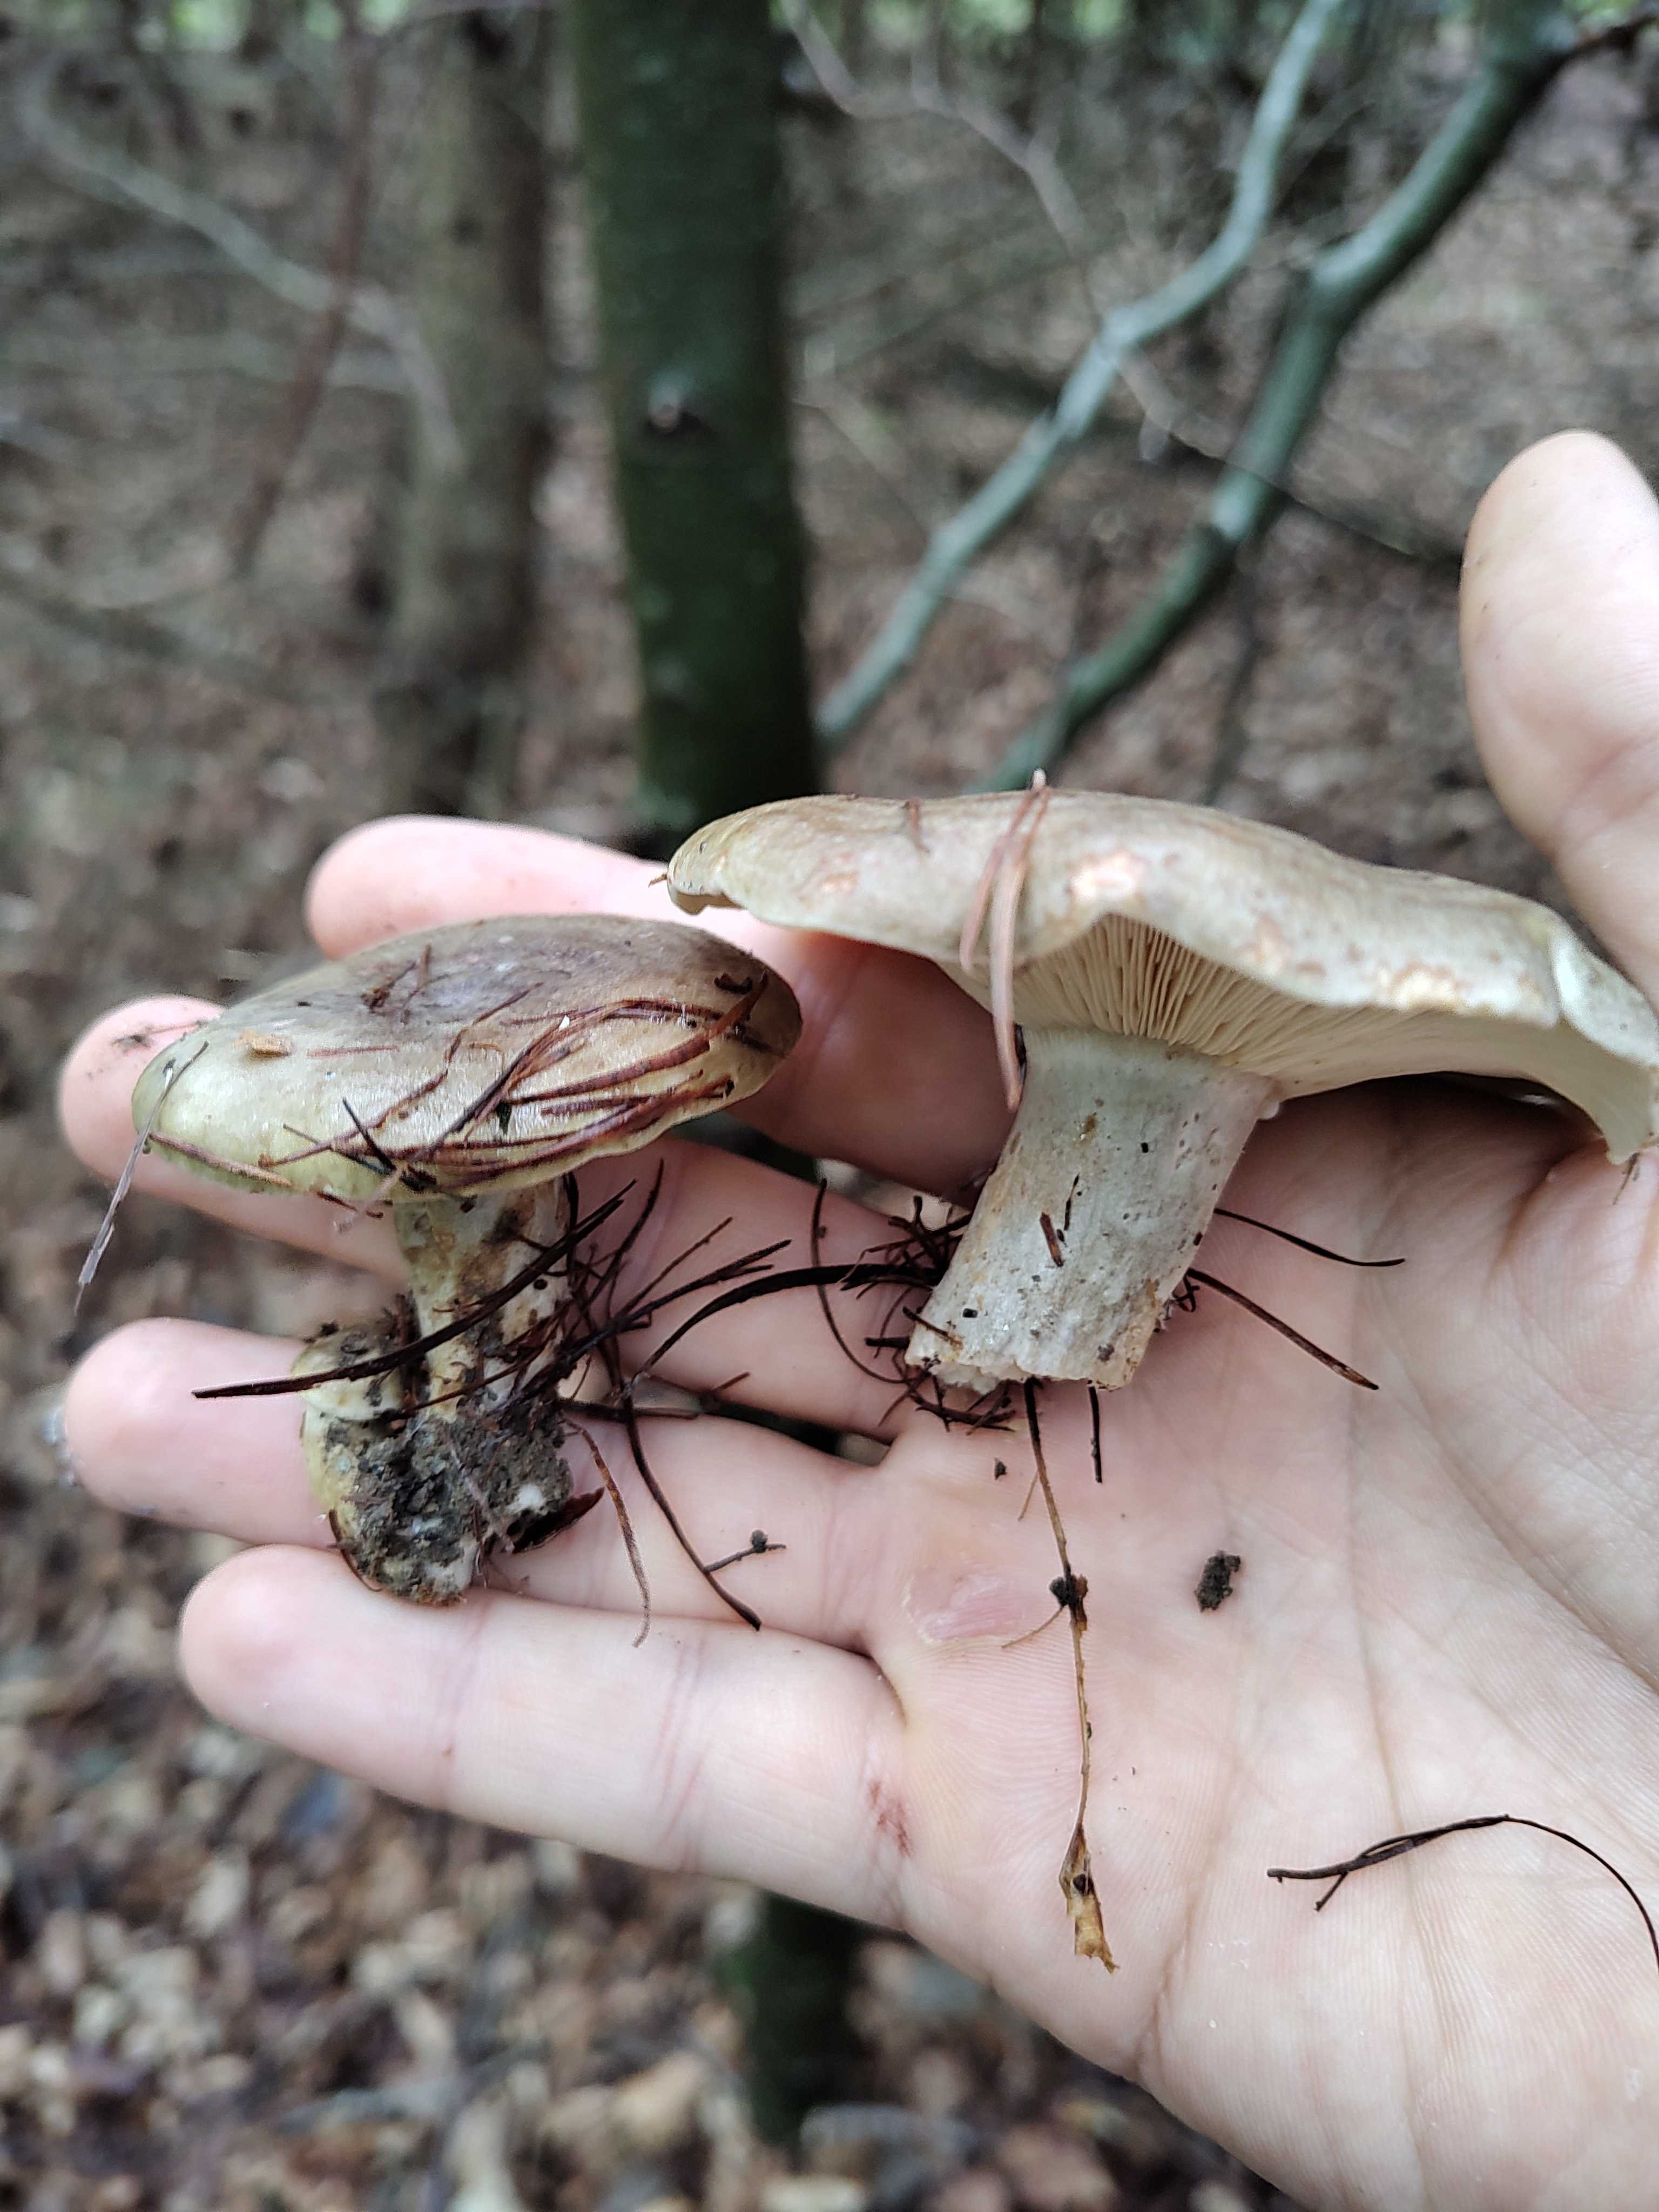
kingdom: Fungi
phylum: Basidiomycota
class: Agaricomycetes
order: Russulales
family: Russulaceae
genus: Lactarius
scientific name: Lactarius fluens
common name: lysrandet mælkehat
